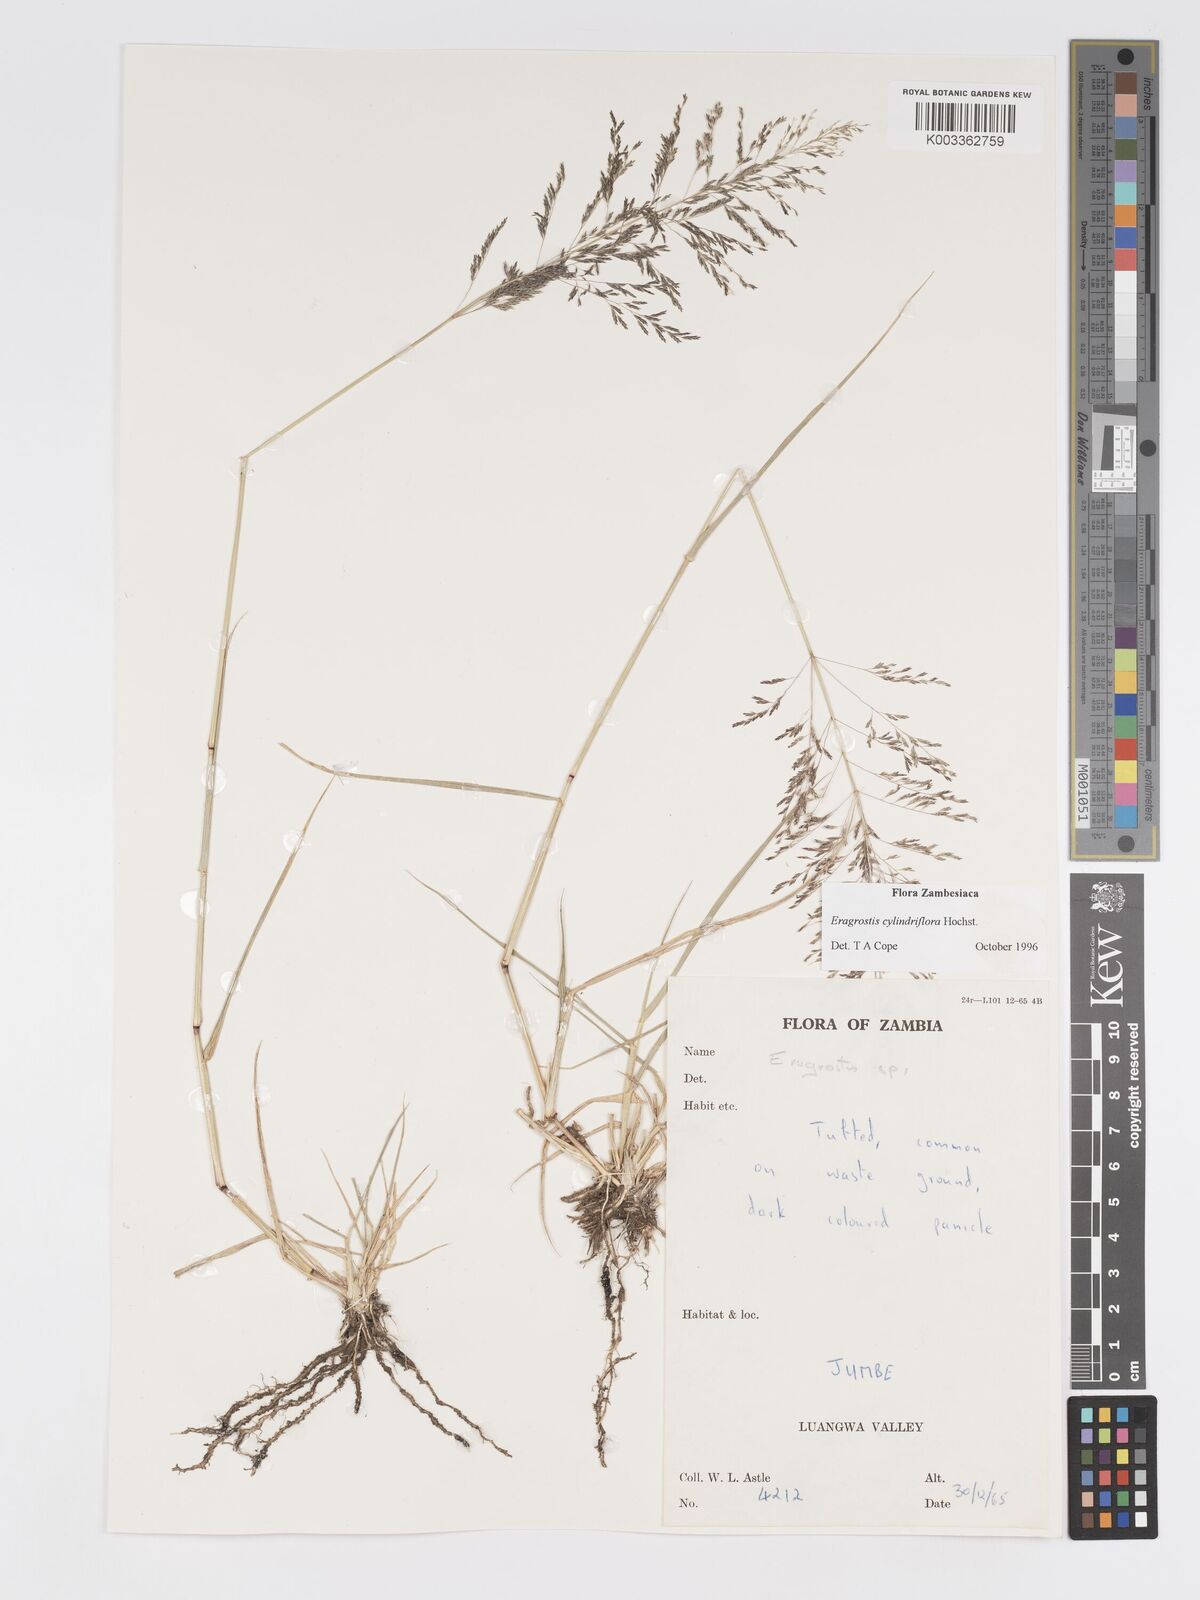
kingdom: Plantae
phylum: Tracheophyta
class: Liliopsida
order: Poales
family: Poaceae
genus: Eragrostis
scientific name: Eragrostis cylindriflora
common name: Cylinderflower lovegrass
